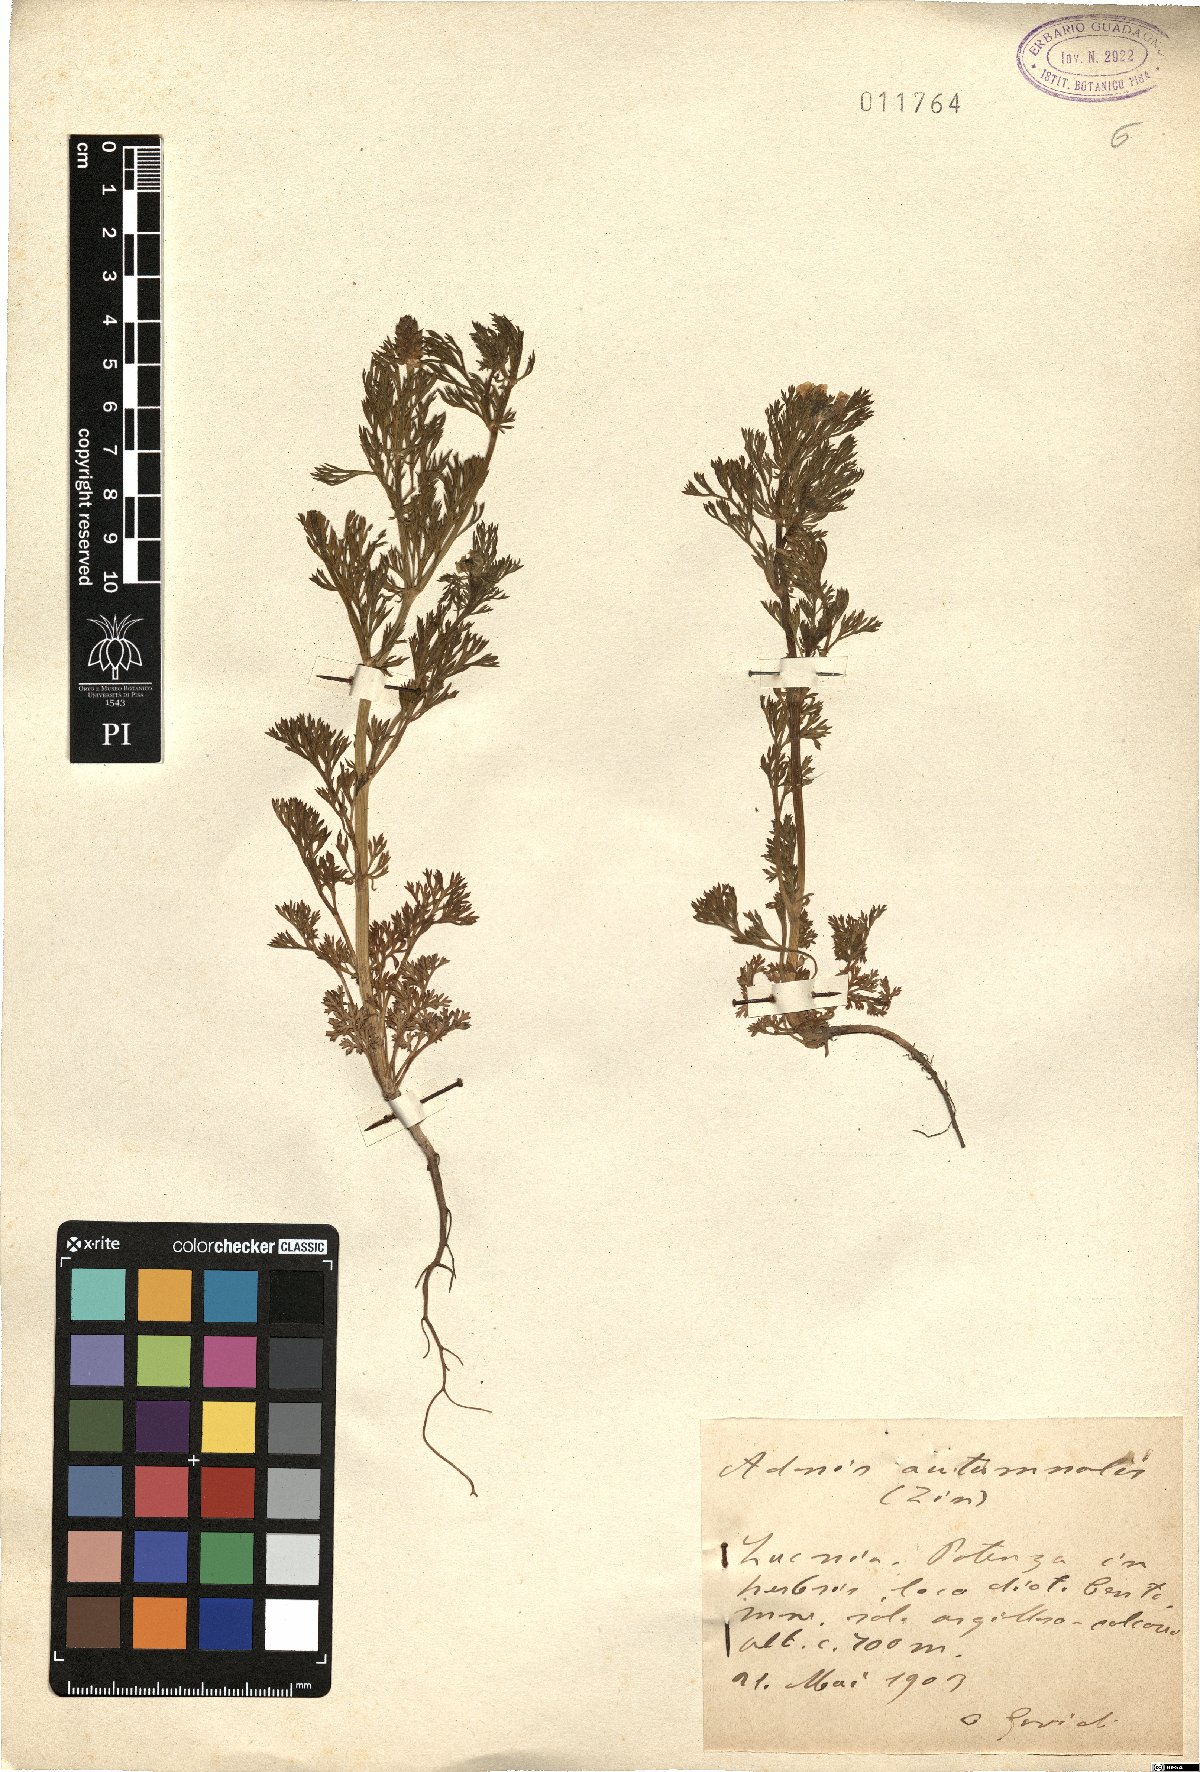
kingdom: Plantae
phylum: Tracheophyta
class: Magnoliopsida
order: Ranunculales
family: Ranunculaceae
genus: Adonis
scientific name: Adonis annua
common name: Pheasant's-eye
